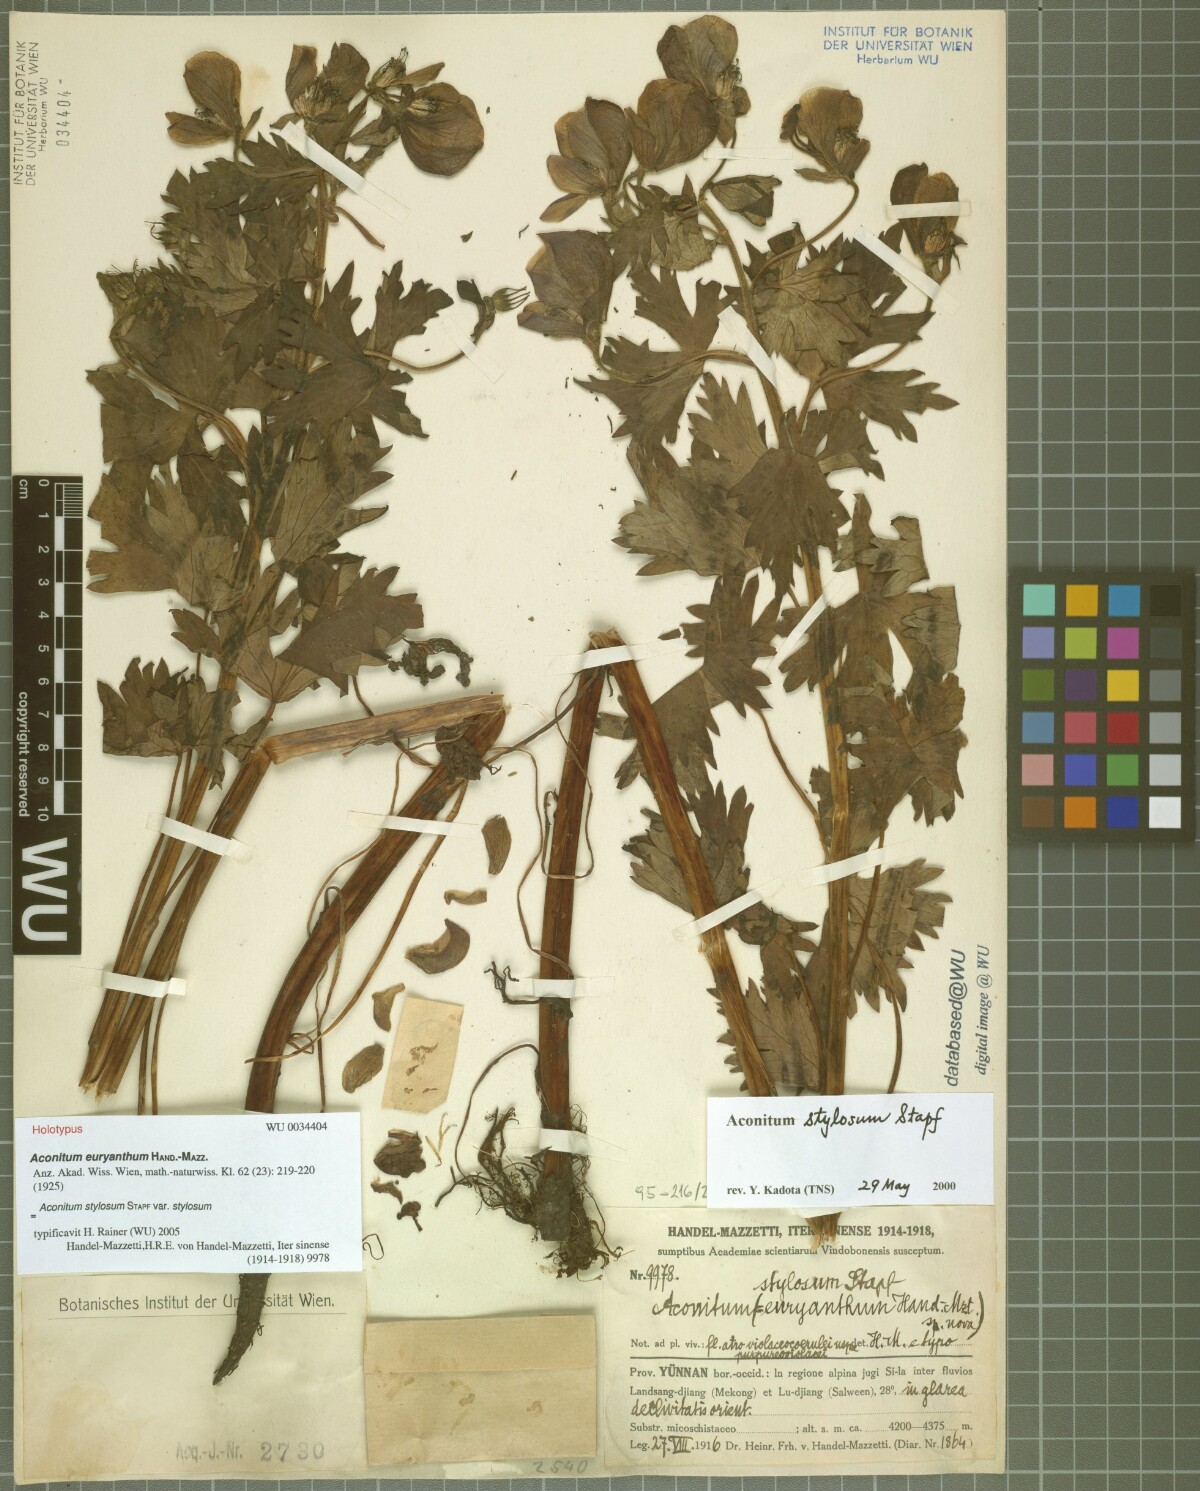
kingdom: Plantae
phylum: Tracheophyta
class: Magnoliopsida
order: Ranunculales
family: Ranunculaceae
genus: Aconitum
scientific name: Aconitum stylosum
